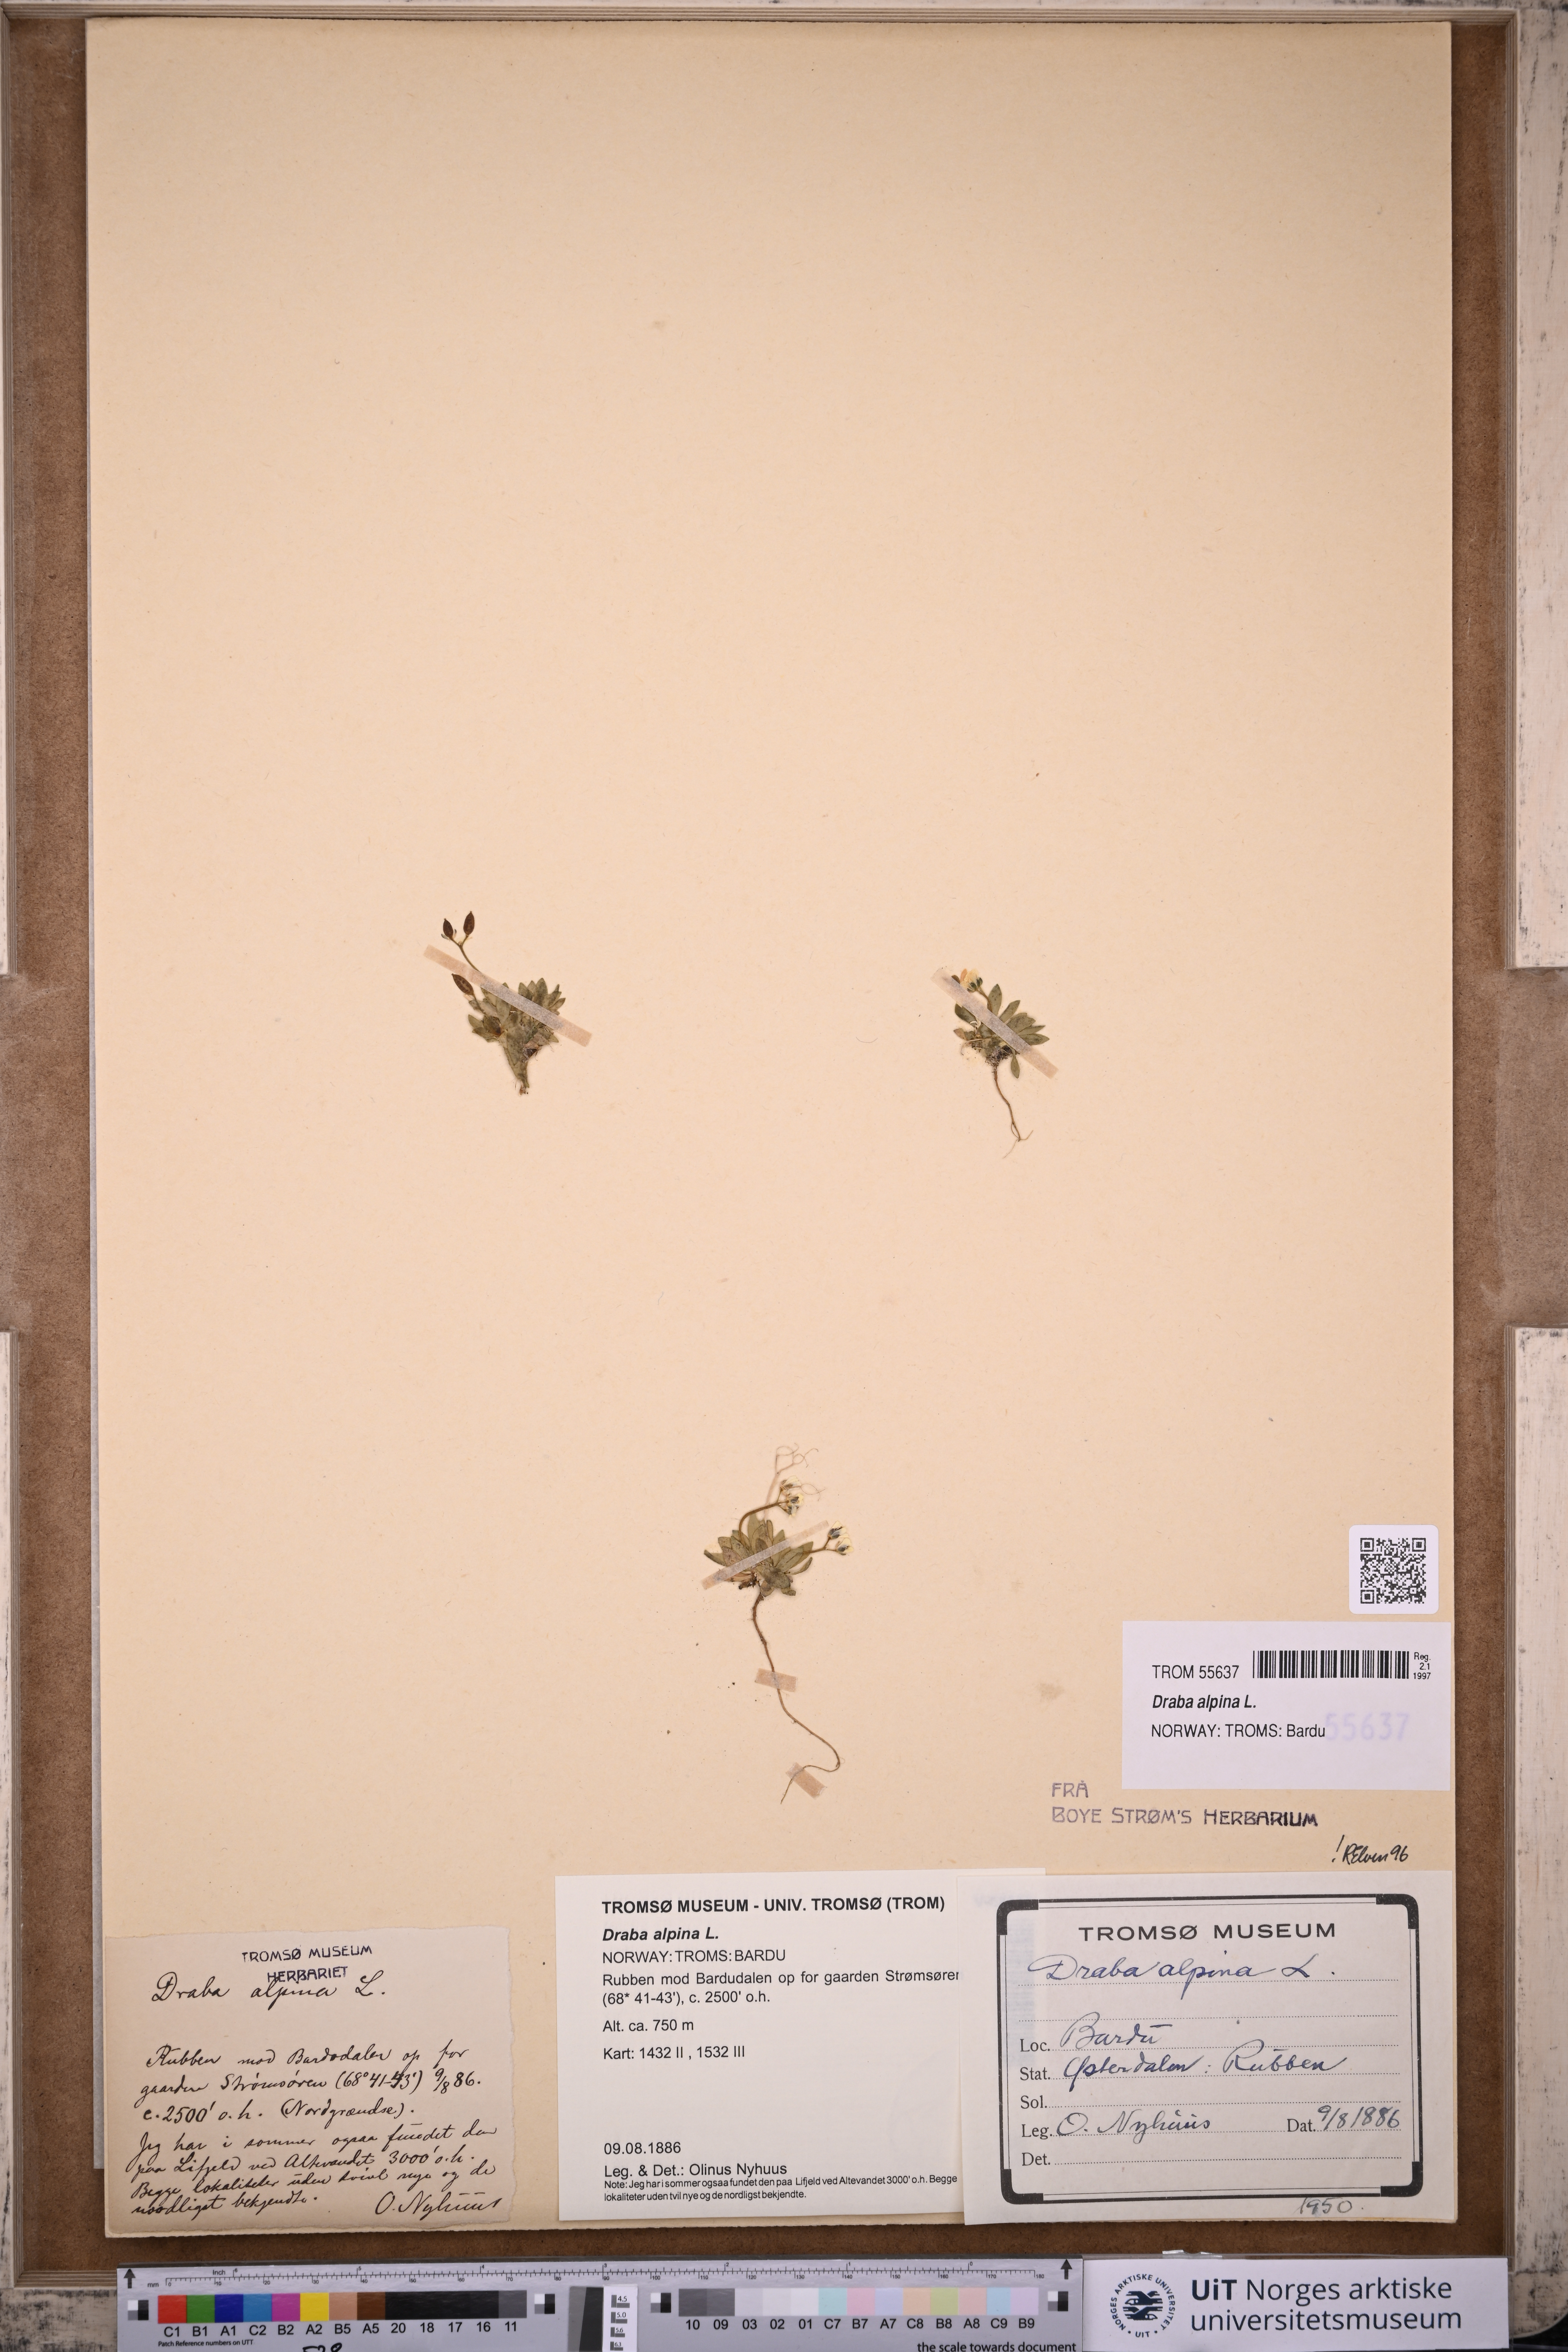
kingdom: Plantae
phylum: Tracheophyta
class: Magnoliopsida
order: Brassicales
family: Brassicaceae
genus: Draba
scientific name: Draba alpina
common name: Alpine draba
